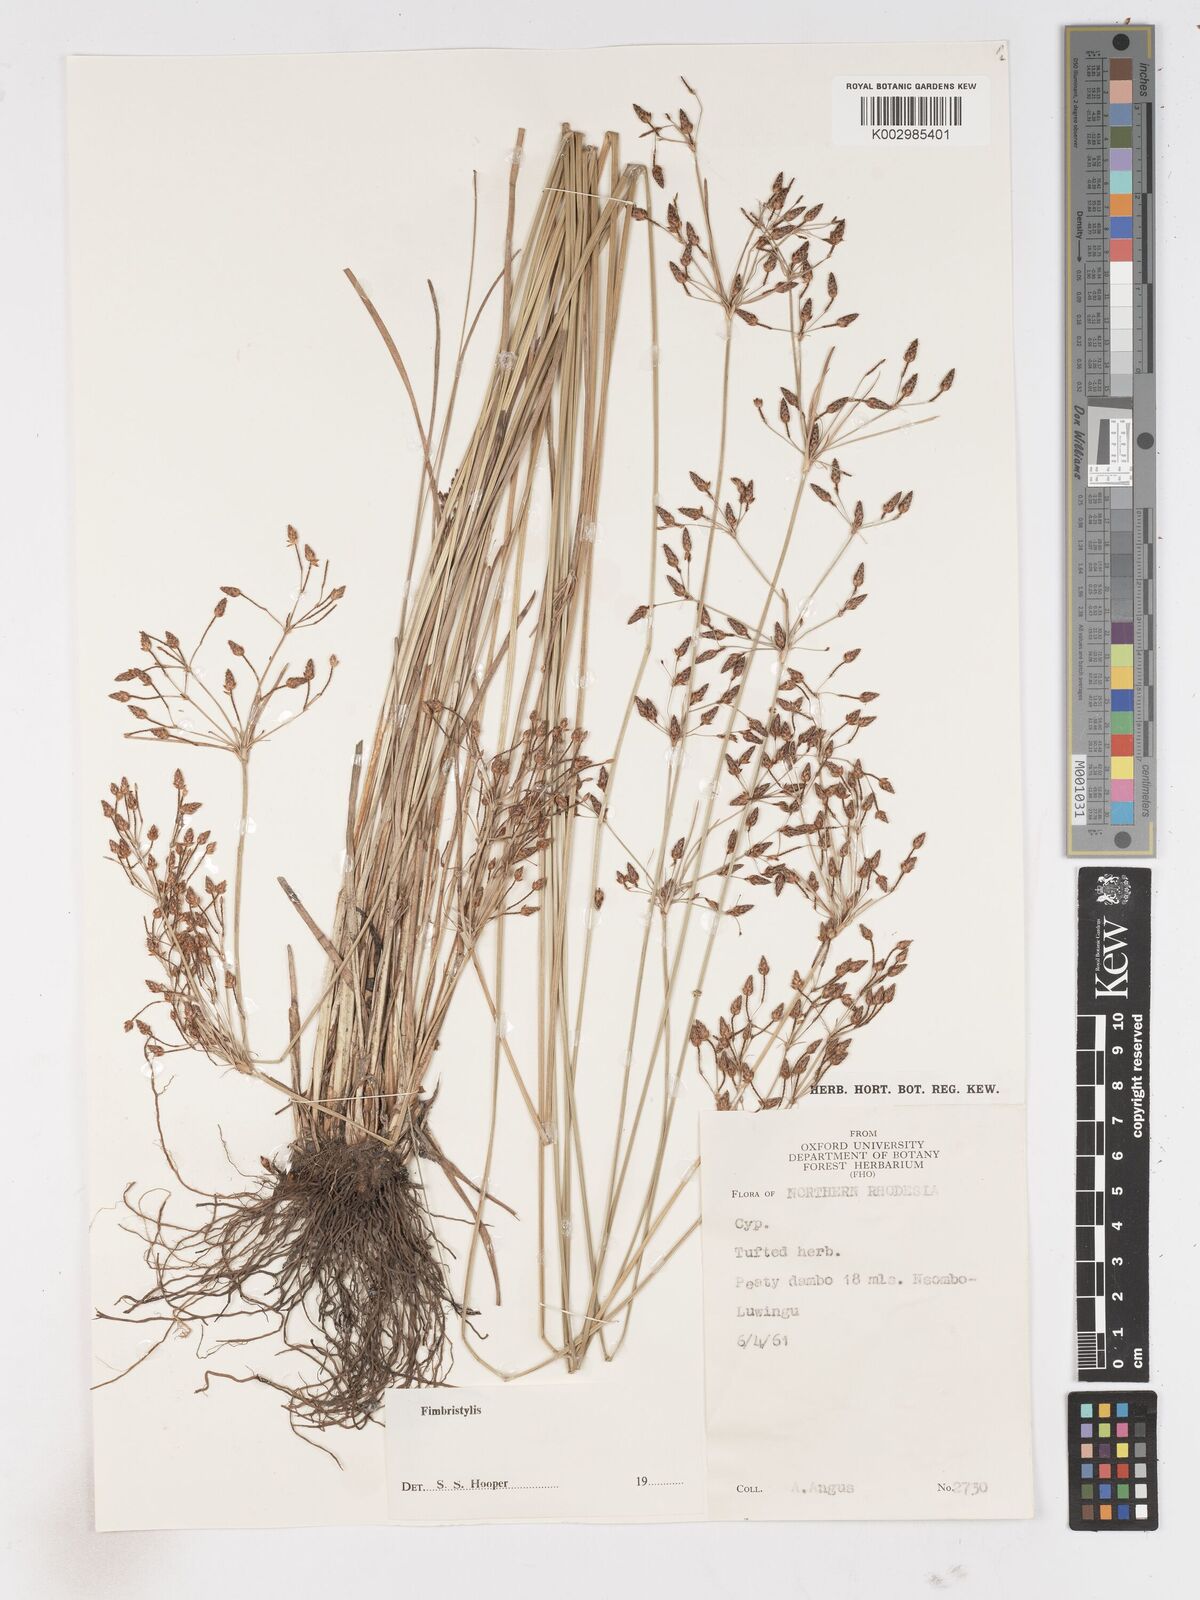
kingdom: Plantae
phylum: Tracheophyta
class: Liliopsida
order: Poales
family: Cyperaceae
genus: Fimbristylis
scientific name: Fimbristylis
